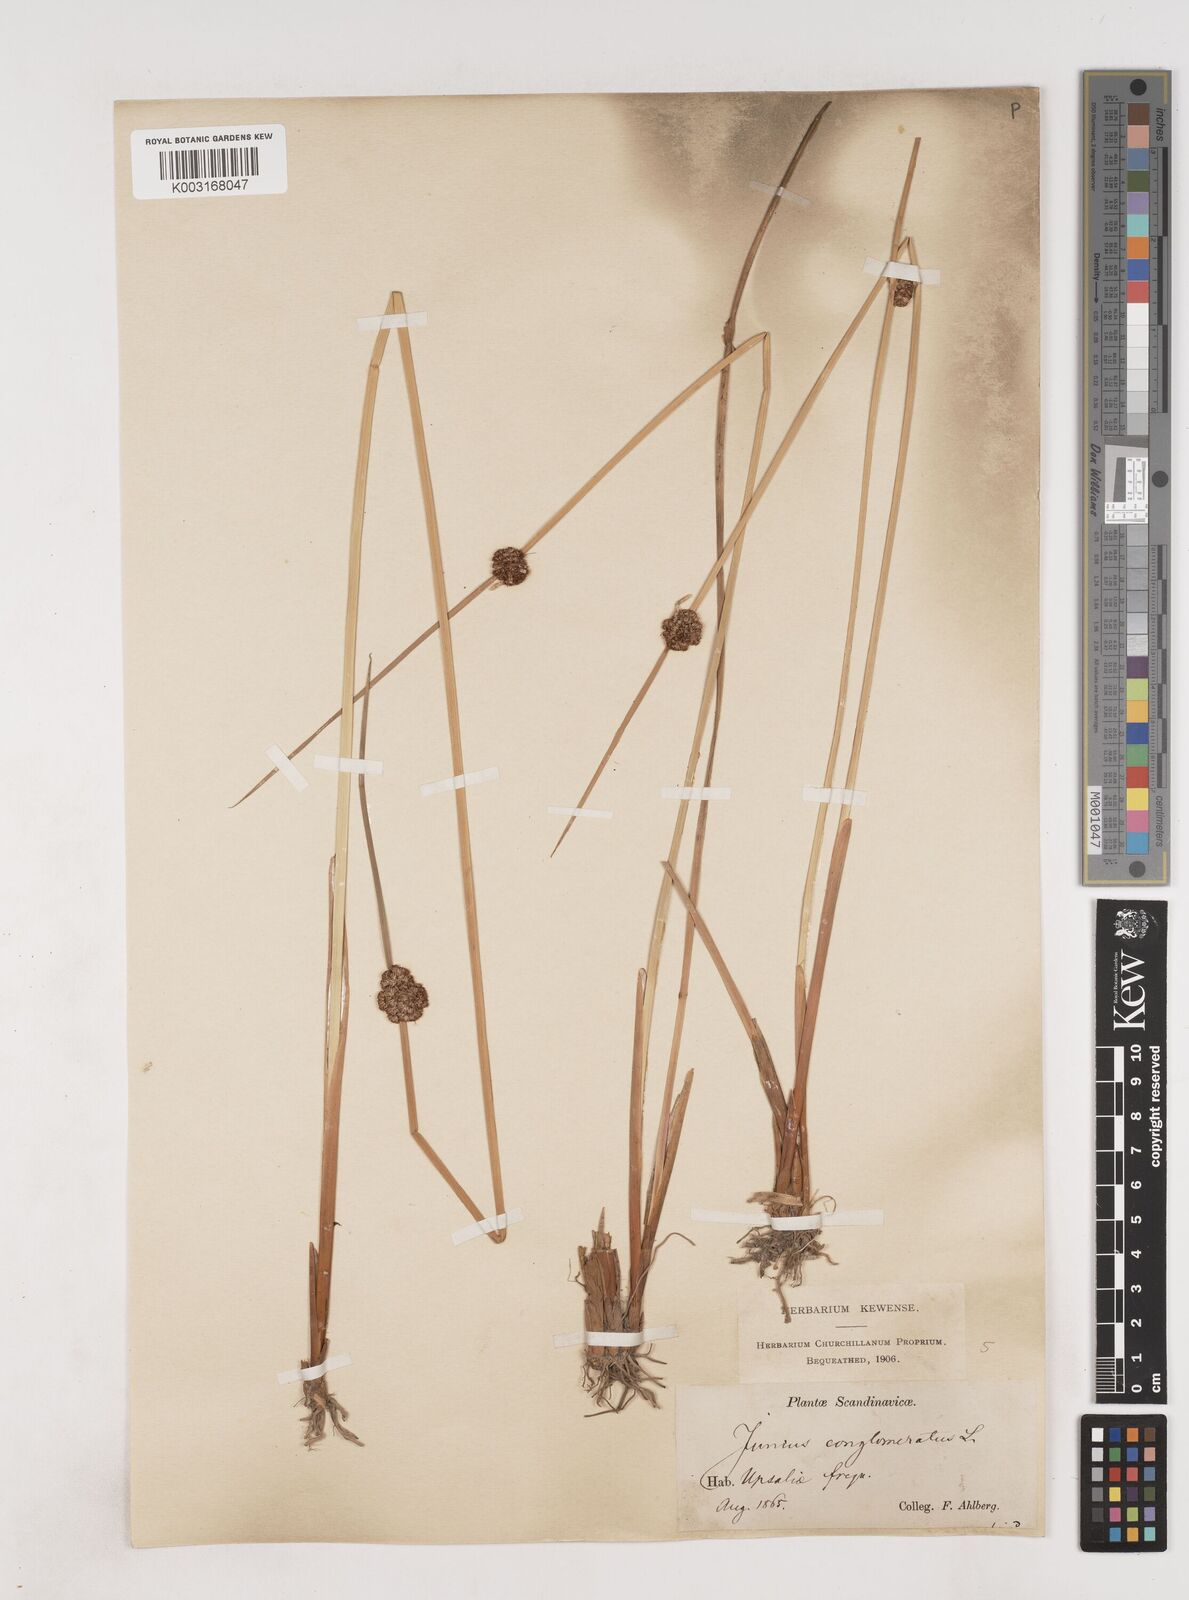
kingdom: Plantae
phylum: Tracheophyta
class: Liliopsida
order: Poales
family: Juncaceae
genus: Juncus
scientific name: Juncus conglomeratus
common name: Compact rush
